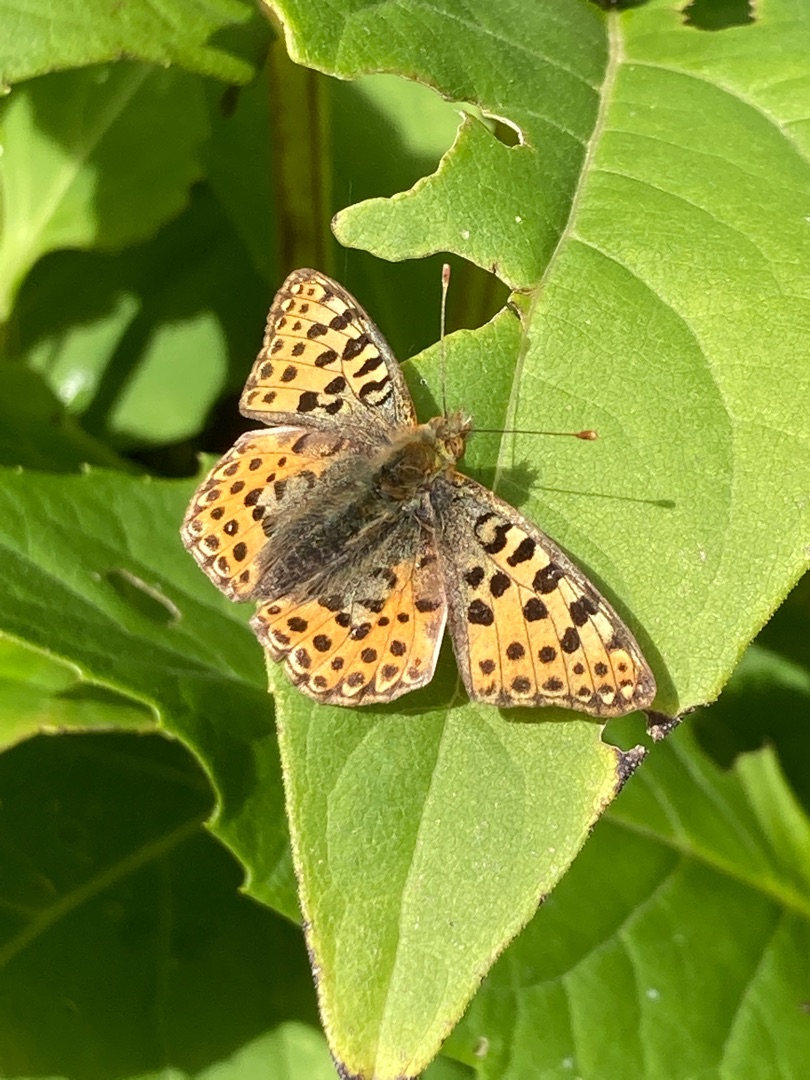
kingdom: Animalia
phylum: Arthropoda
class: Insecta
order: Lepidoptera
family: Nymphalidae
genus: Issoria
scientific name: Issoria lathonia
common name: Storplettet perlemorsommerfugl
